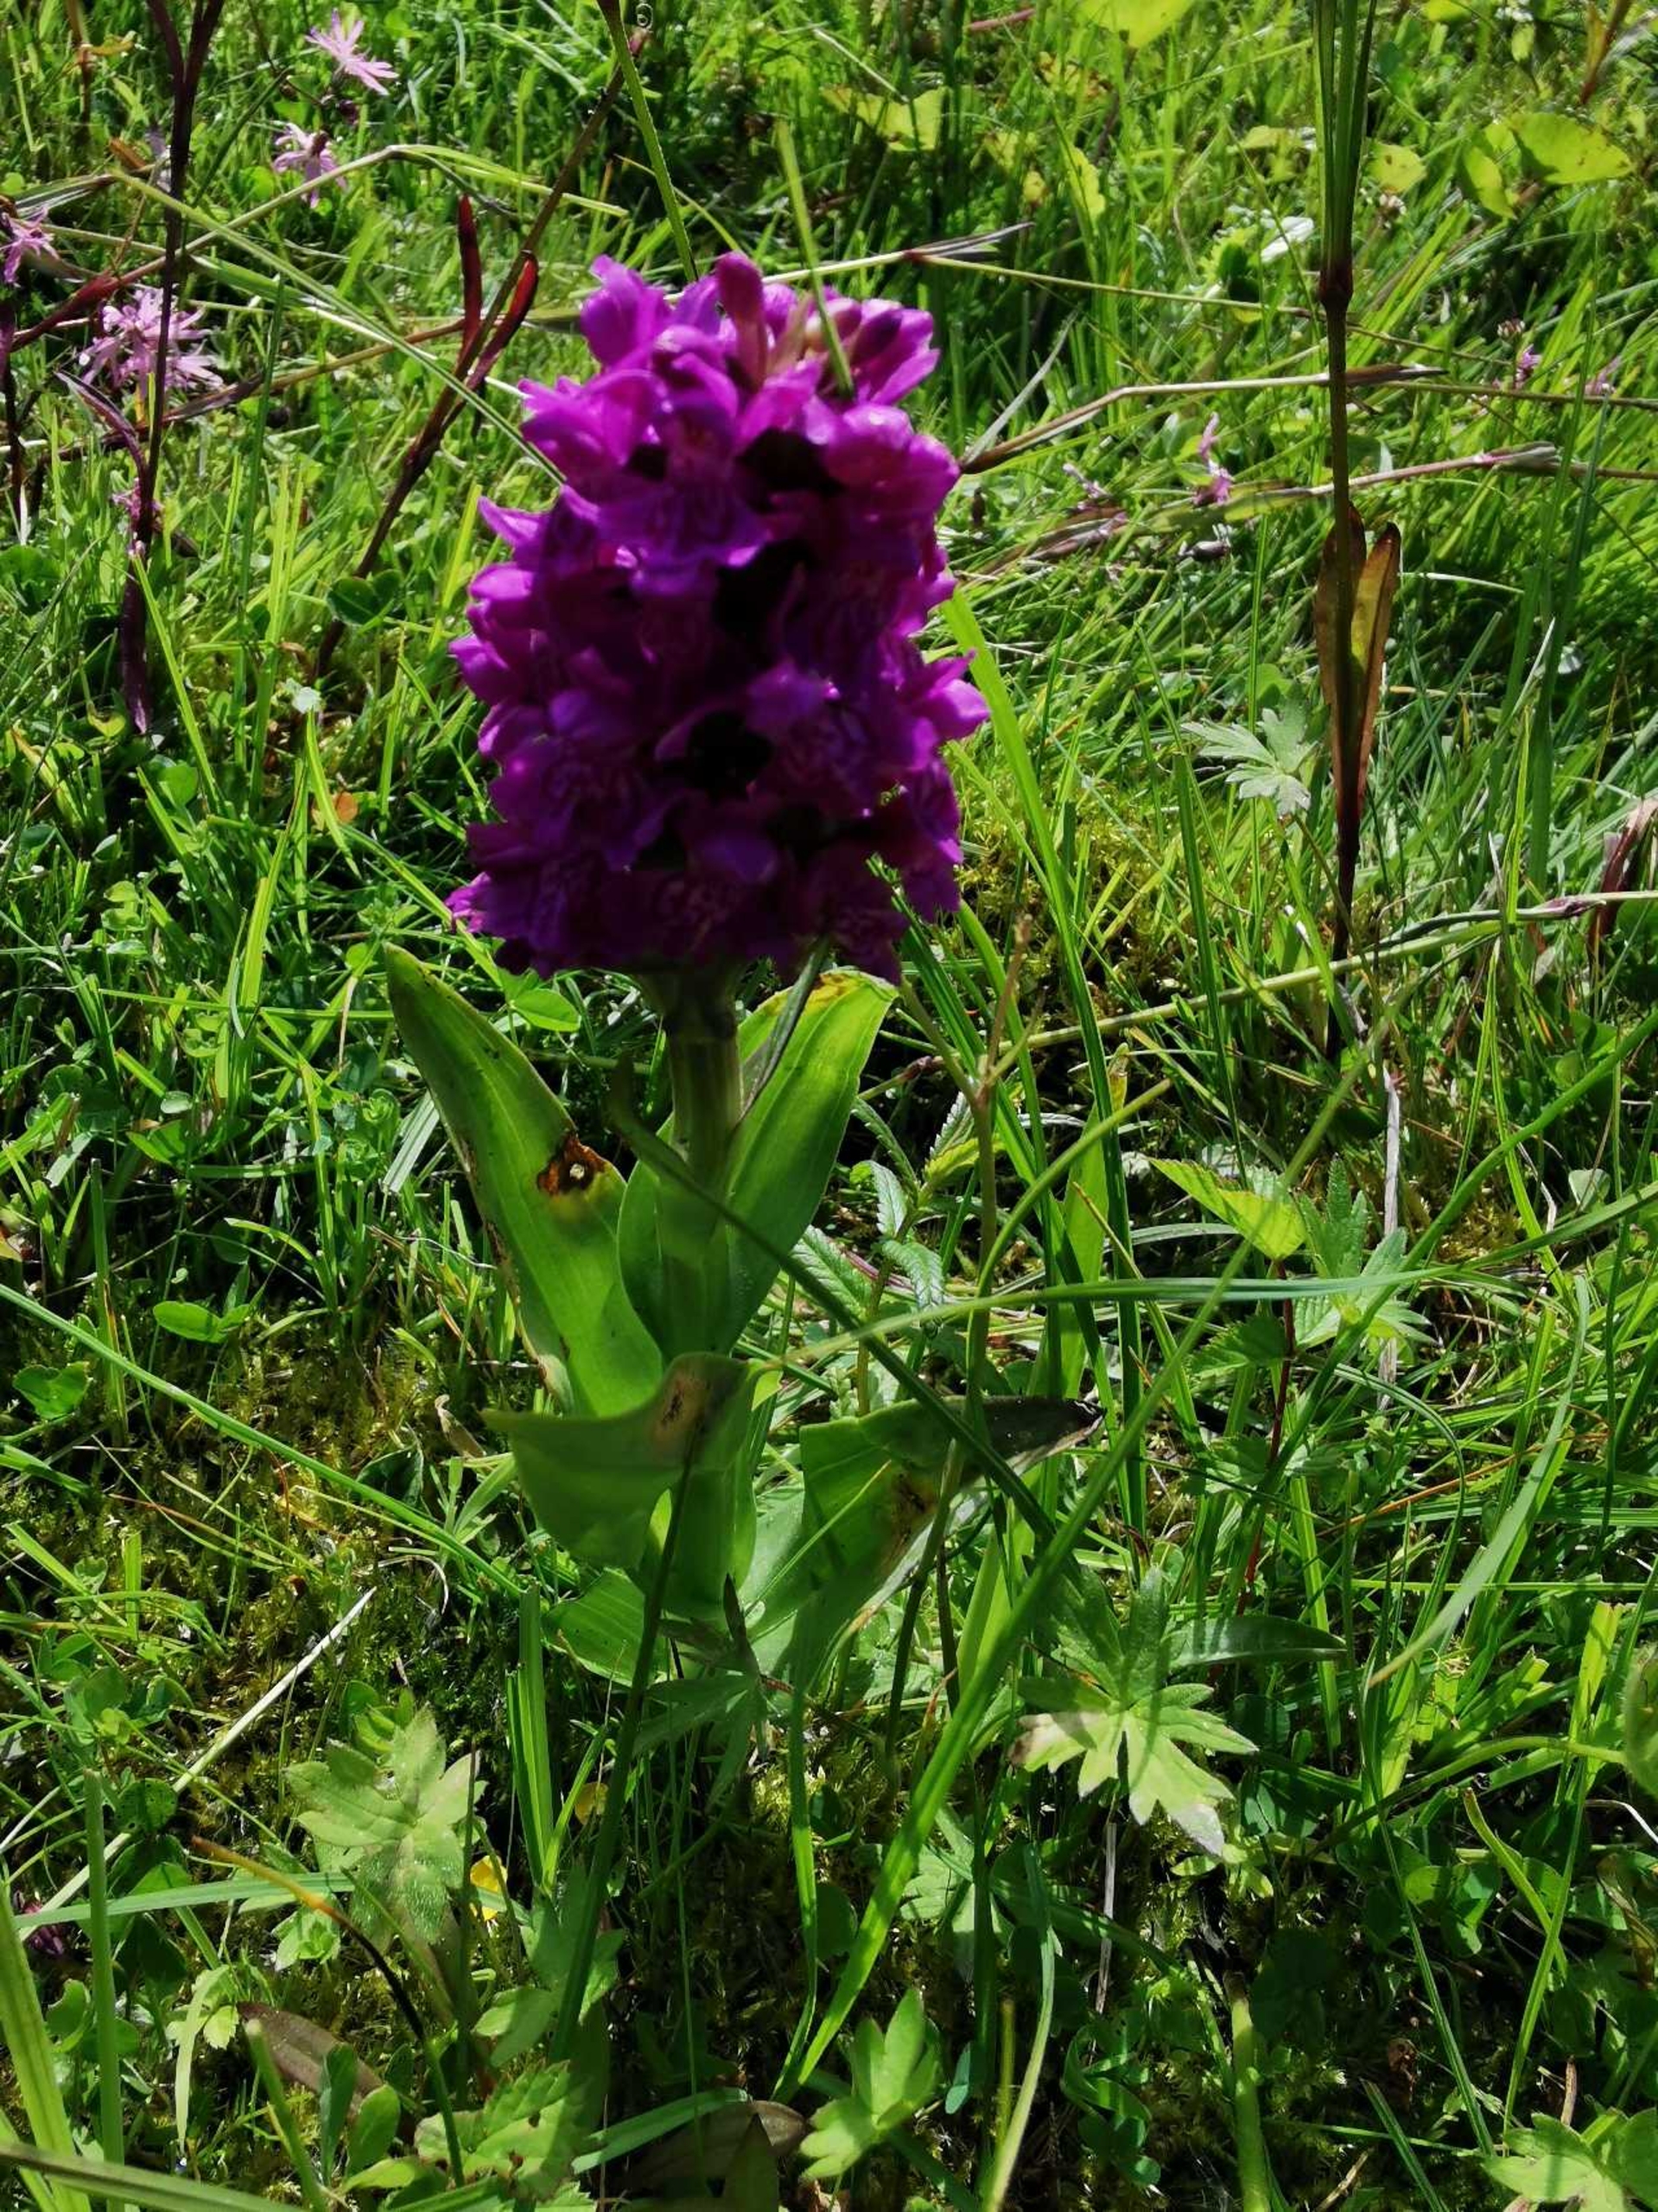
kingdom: Plantae
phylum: Tracheophyta
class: Liliopsida
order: Asparagales
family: Orchidaceae
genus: Dactylorhiza
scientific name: Dactylorhiza majalis
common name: Maj-gøgeurt
